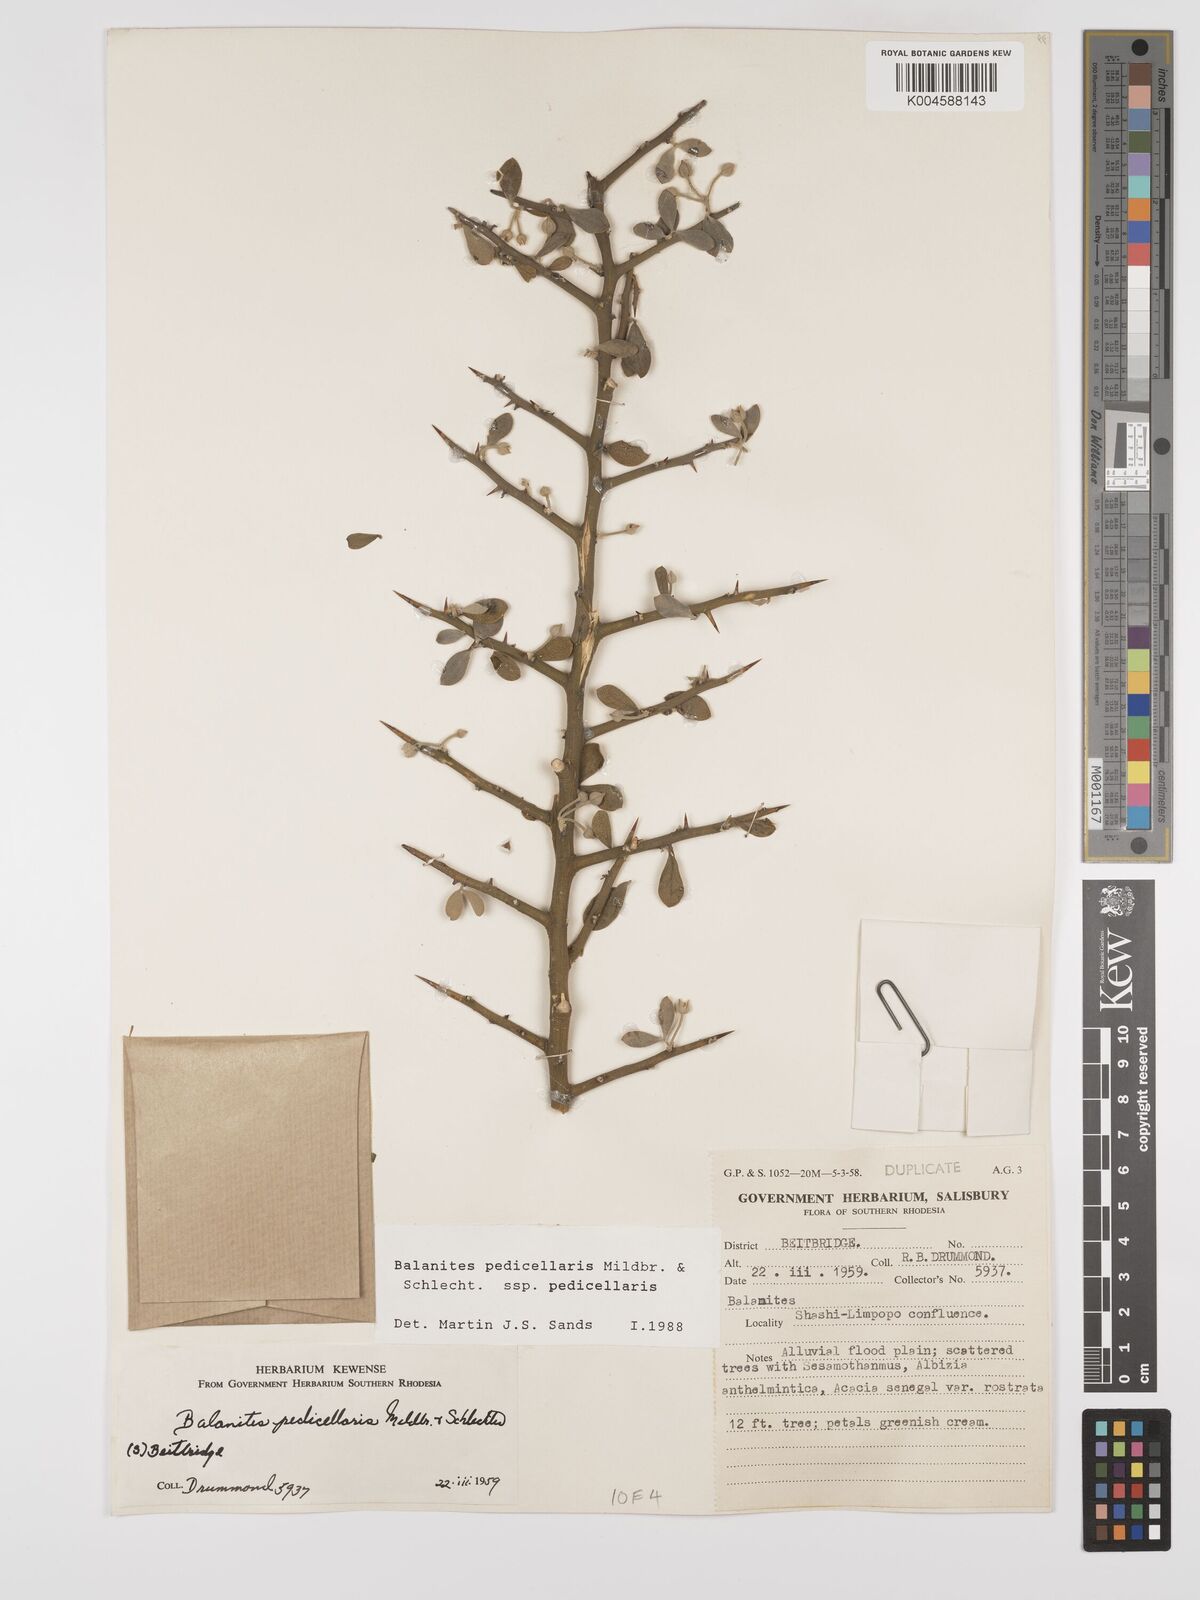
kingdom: Plantae
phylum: Tracheophyta
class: Magnoliopsida
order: Zygophyllales
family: Zygophyllaceae
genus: Balanites
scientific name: Balanites pedicellaris
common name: Small green-thorn
